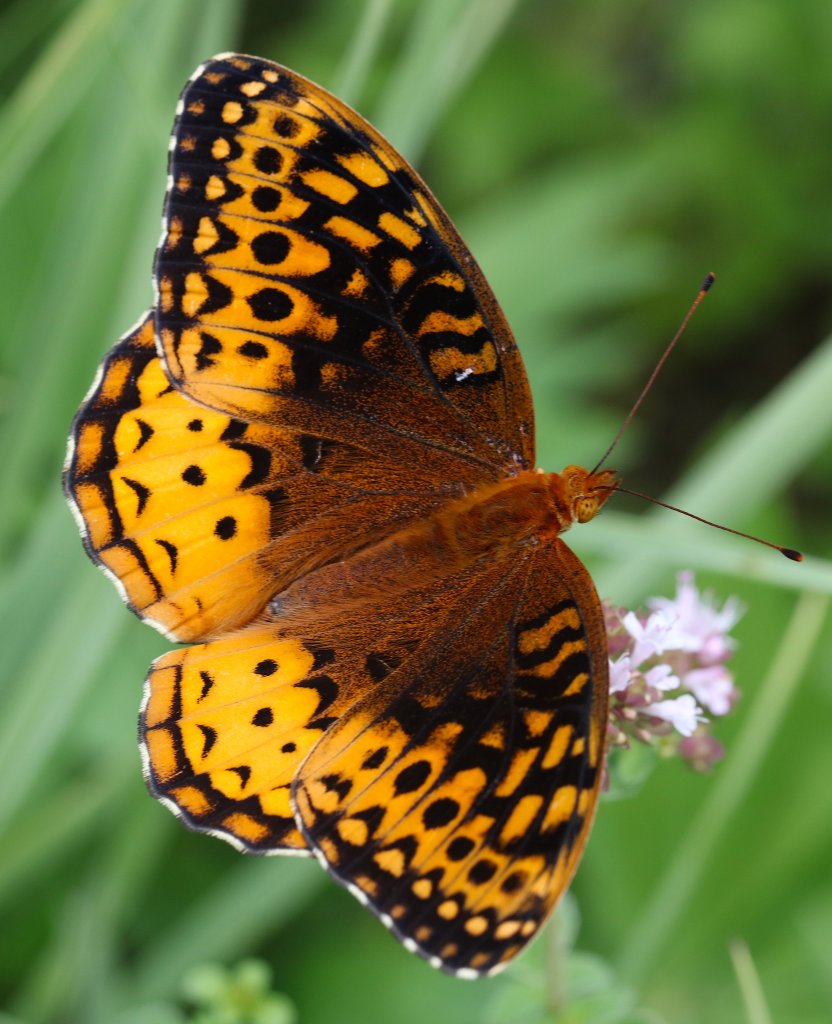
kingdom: Animalia
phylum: Arthropoda
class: Insecta
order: Lepidoptera
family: Nymphalidae
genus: Speyeria
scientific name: Speyeria cybele
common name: Great Spangled Fritillary
